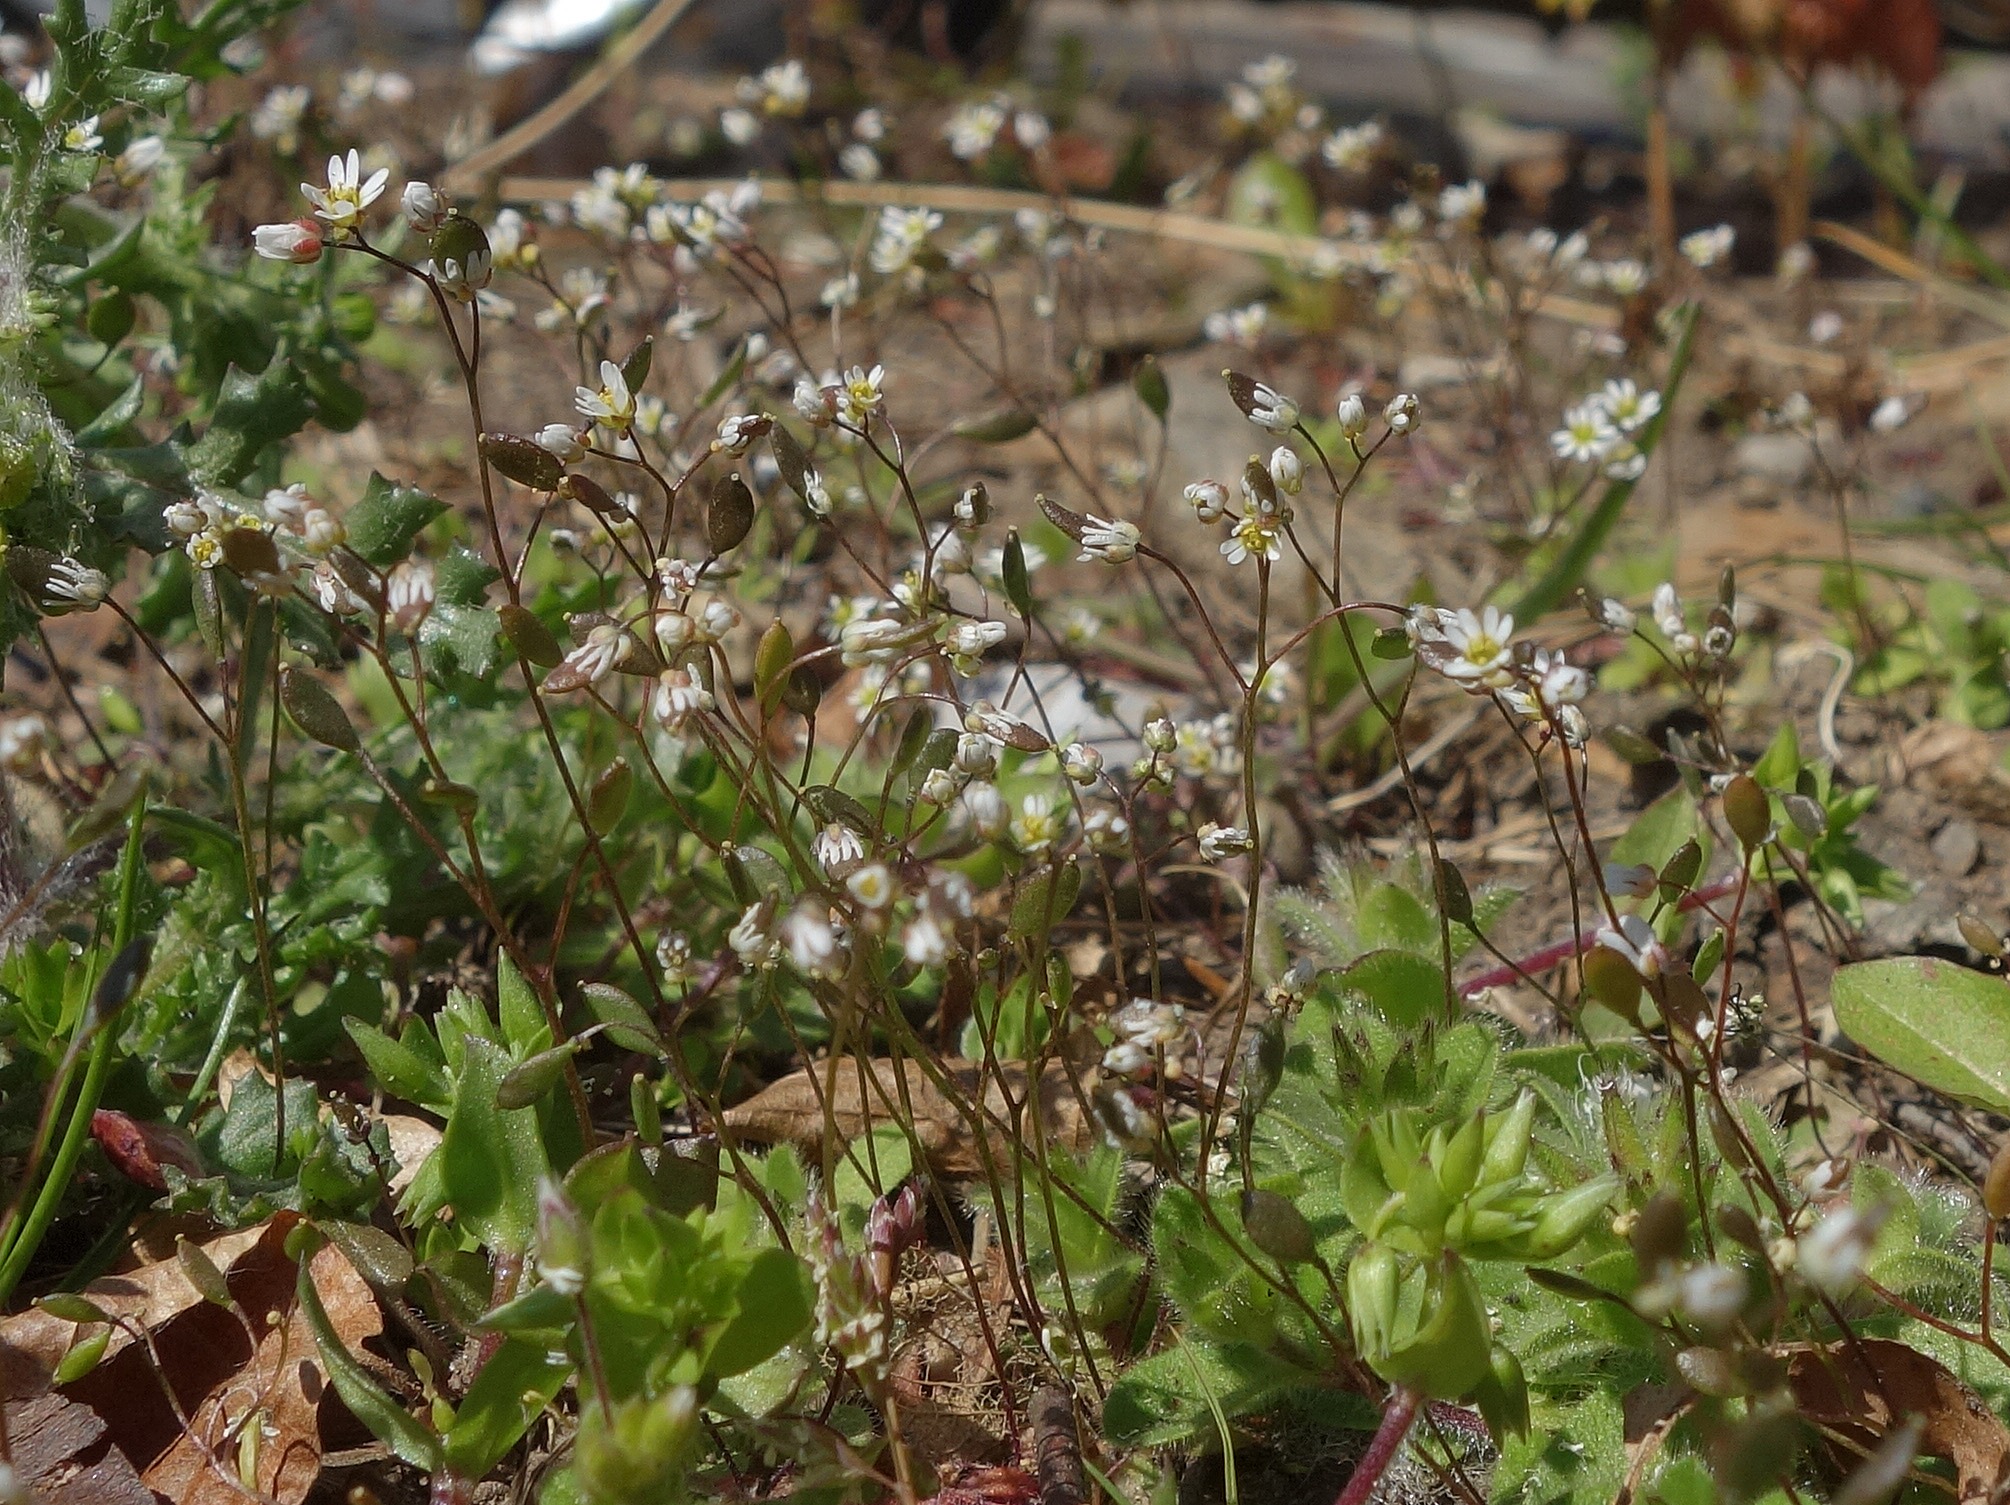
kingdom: Plantae
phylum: Tracheophyta
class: Magnoliopsida
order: Brassicales
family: Brassicaceae
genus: Draba
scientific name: Draba verna
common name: Vår-gæslingeblomst
